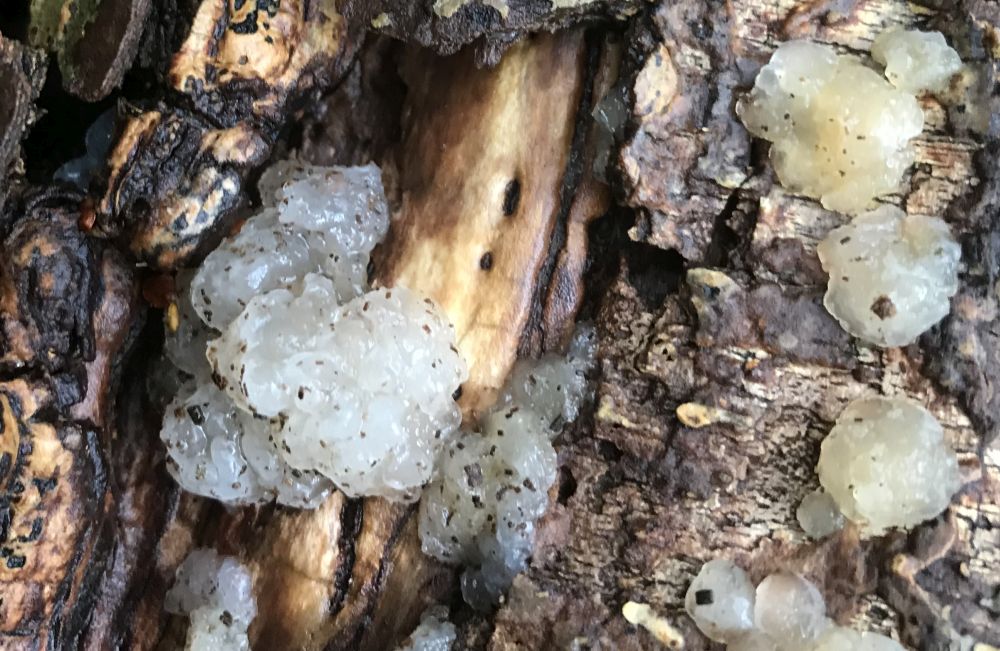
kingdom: Fungi
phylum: Basidiomycota
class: Agaricomycetes
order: Auriculariales
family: Hyaloriaceae
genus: Myxarium
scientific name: Myxarium nucleatum
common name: klar bævretop
